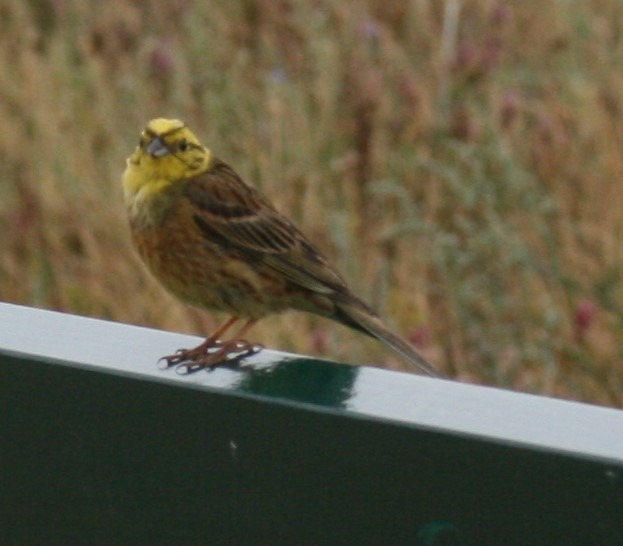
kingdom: Animalia
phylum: Chordata
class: Aves
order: Passeriformes
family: Emberizidae
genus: Emberiza
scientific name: Emberiza citrinella
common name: Gulspurv
